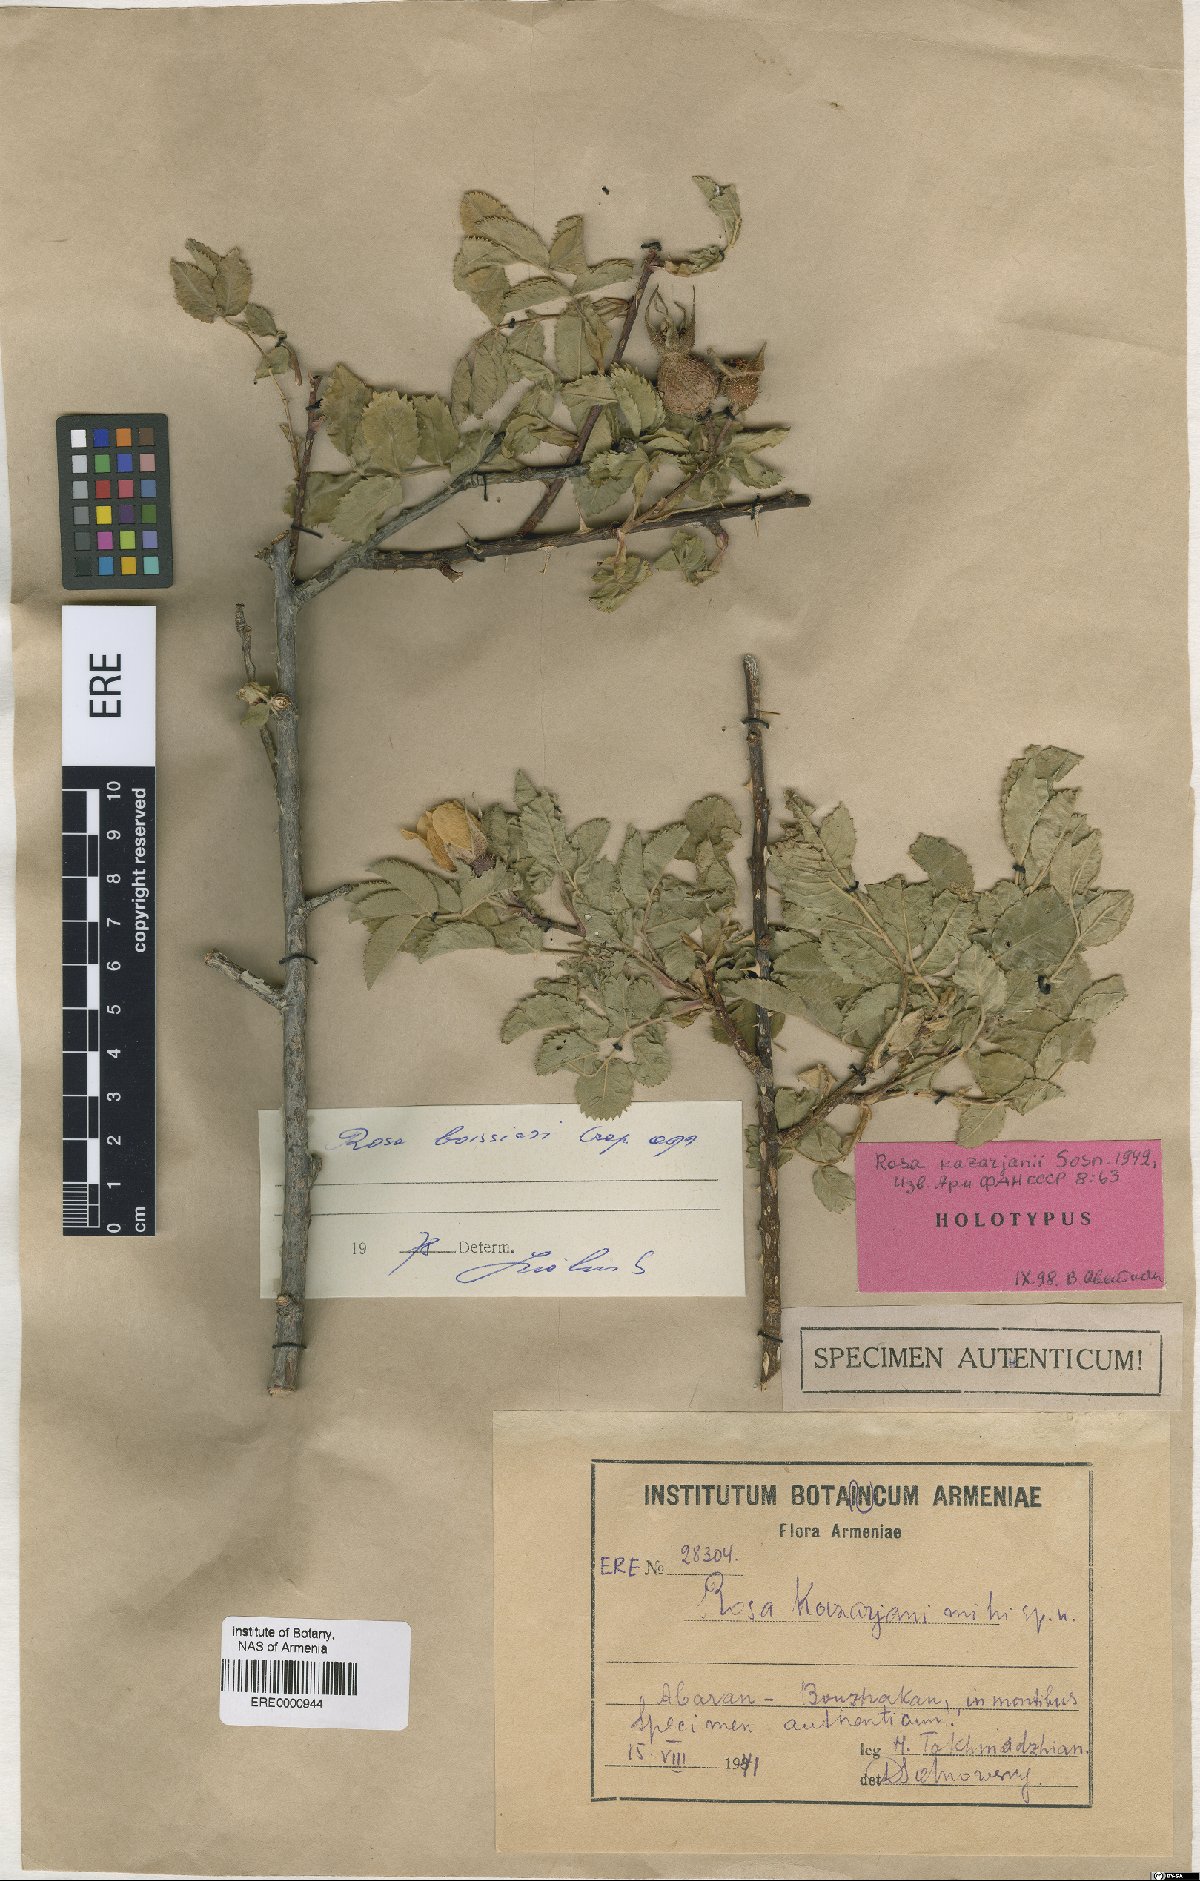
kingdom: Plantae
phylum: Tracheophyta
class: Magnoliopsida
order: Rosales
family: Rosaceae
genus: Rosa
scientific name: Rosa kazarjanii
